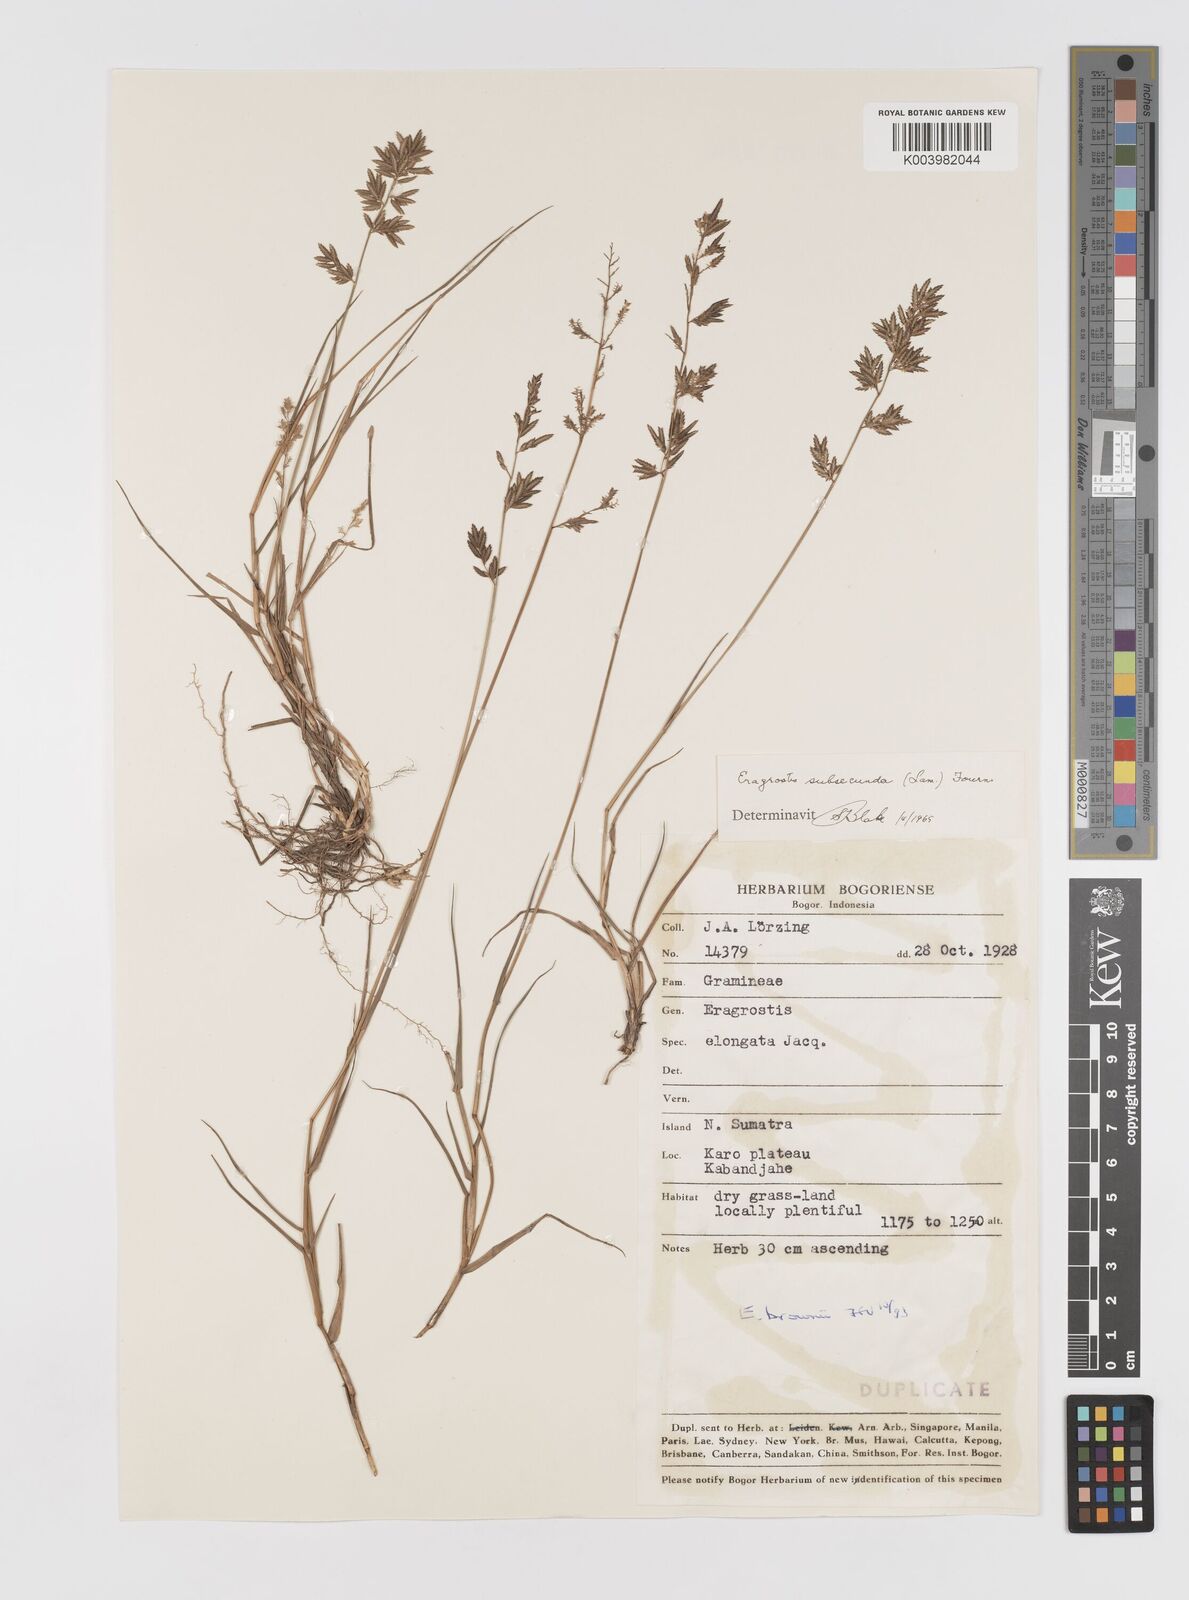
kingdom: Plantae
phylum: Tracheophyta
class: Liliopsida
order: Poales
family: Poaceae
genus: Eragrostis
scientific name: Eragrostis brownii
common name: Lovegrass
